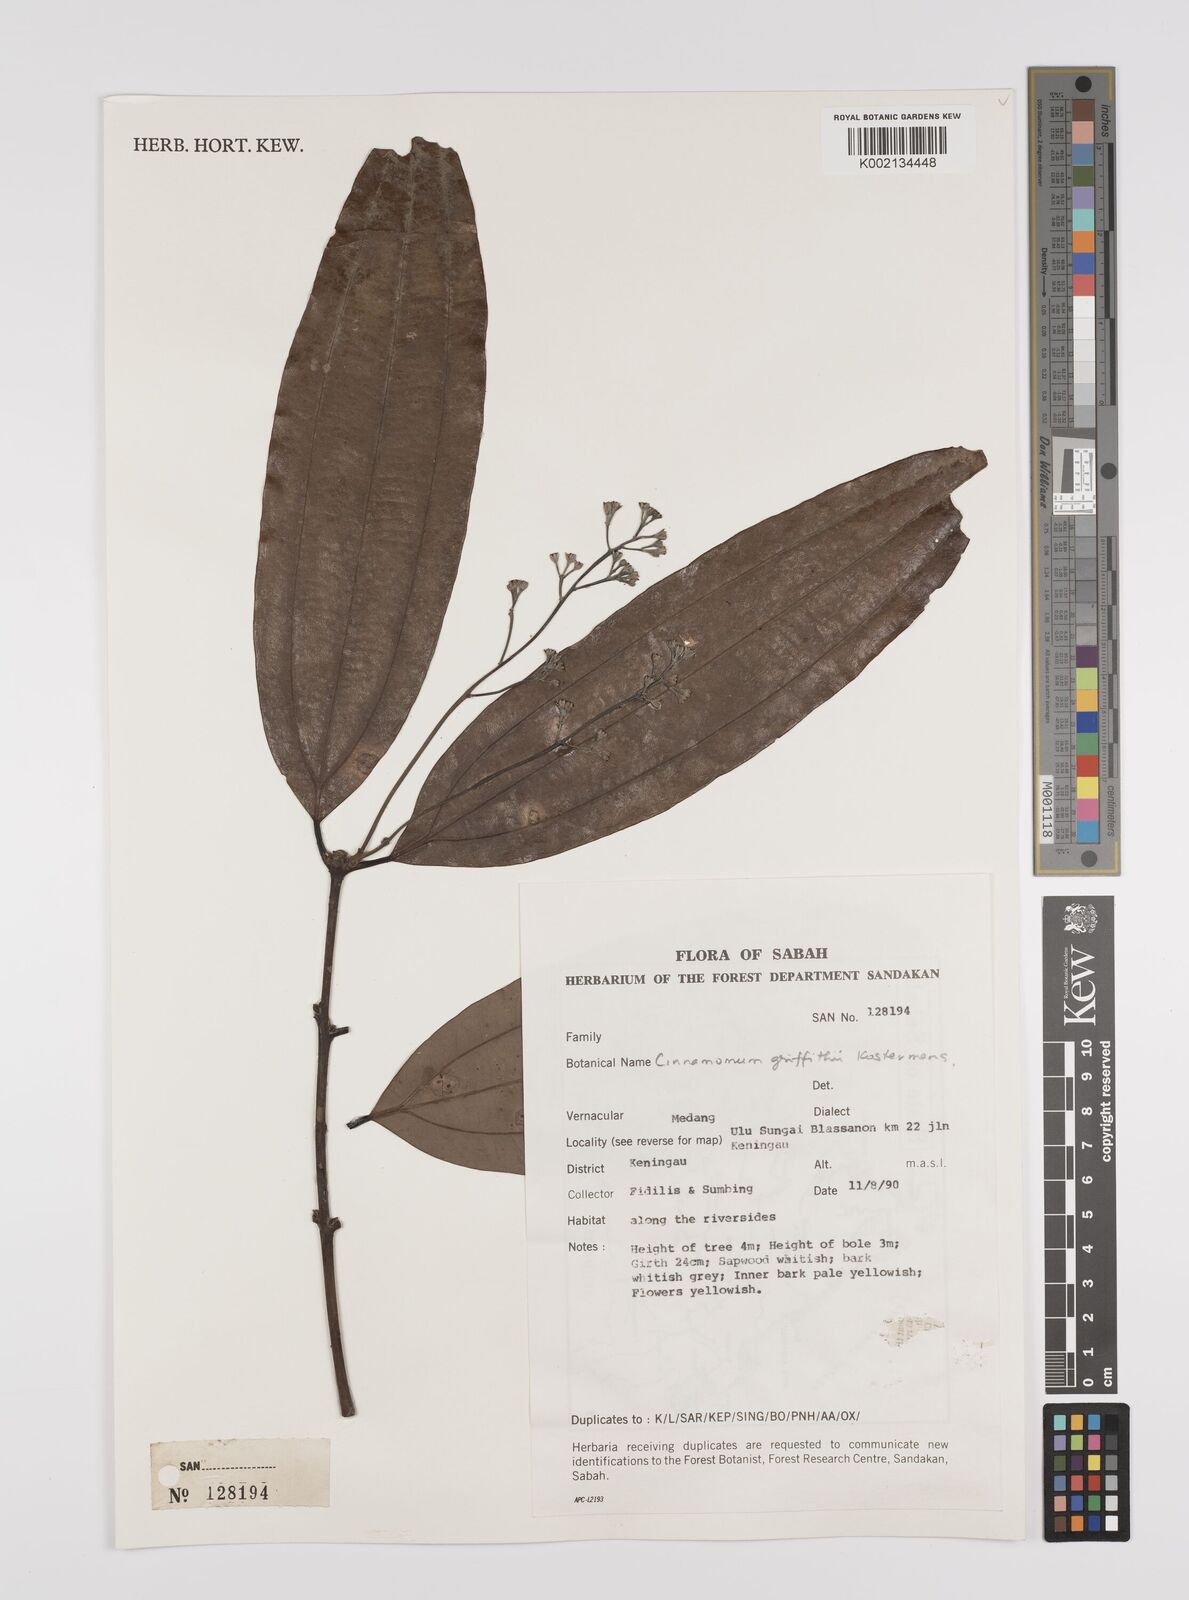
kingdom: Plantae
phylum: Tracheophyta
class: Magnoliopsida
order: Laurales
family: Lauraceae
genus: Cinnamomum
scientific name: Cinnamomum iners
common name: Wild cinnamon
